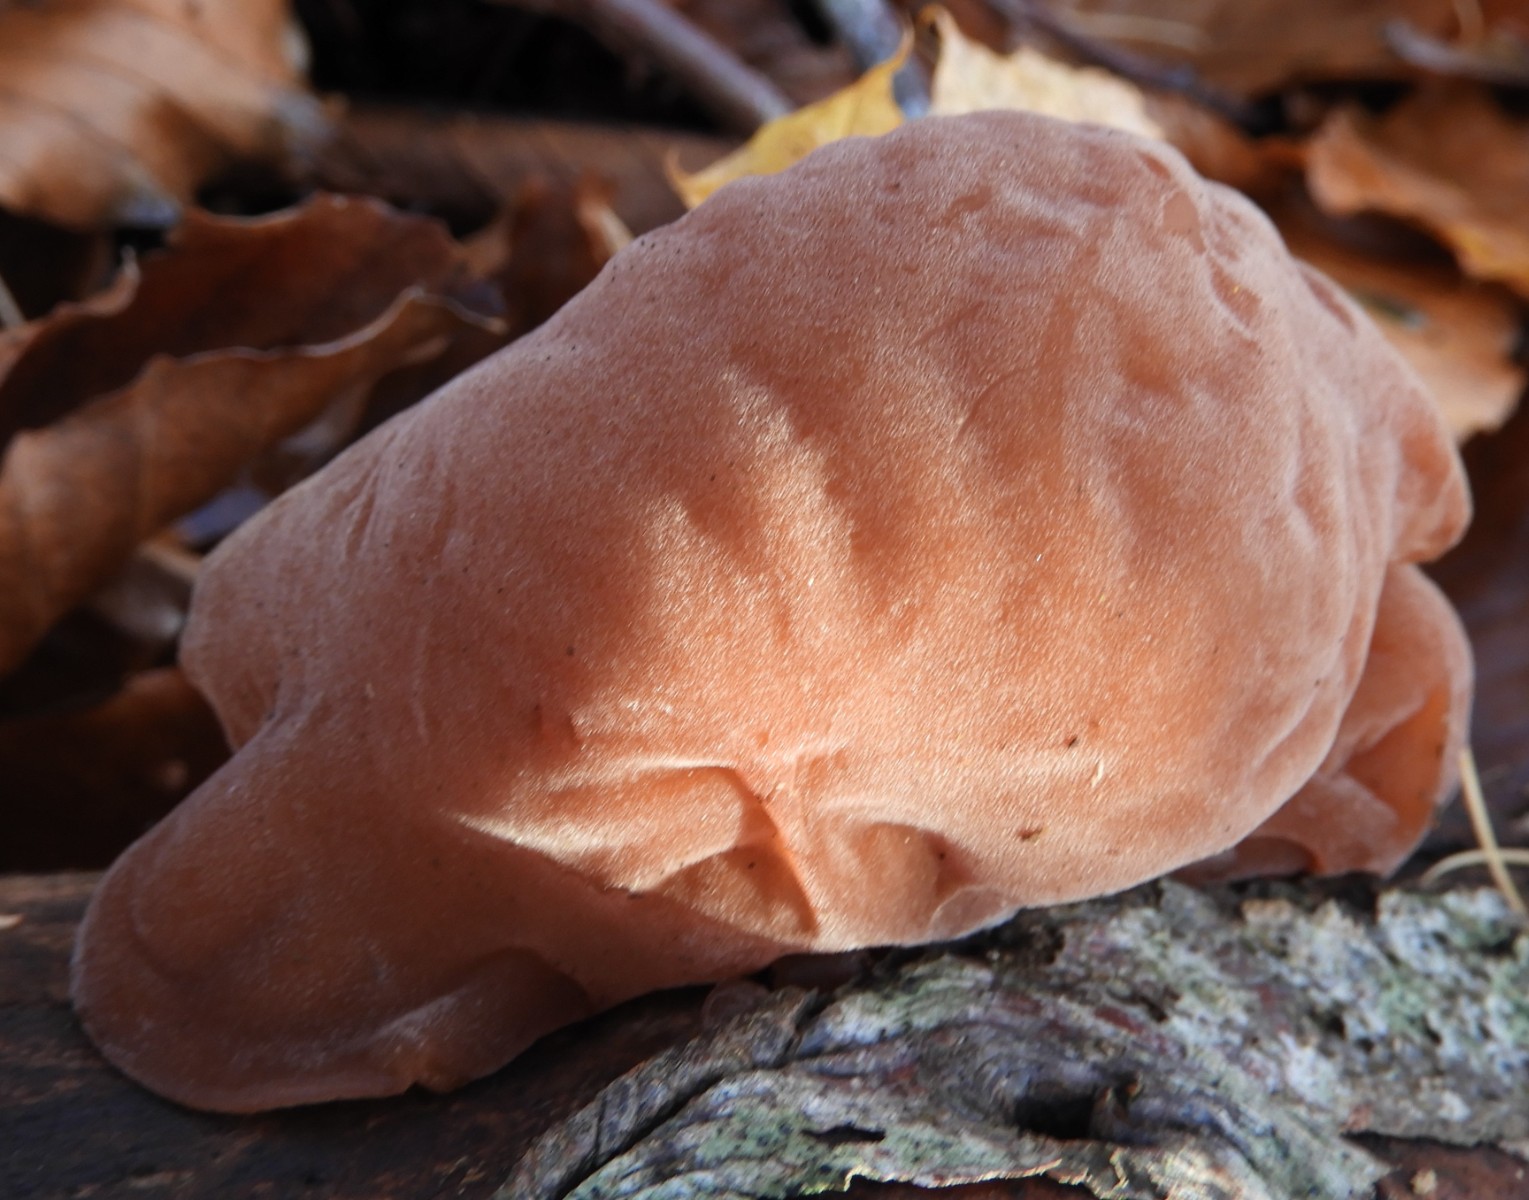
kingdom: Fungi
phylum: Basidiomycota
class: Agaricomycetes
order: Auriculariales
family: Auriculariaceae
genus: Auricularia
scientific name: Auricularia auricula-judae
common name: almindelig judasøre
